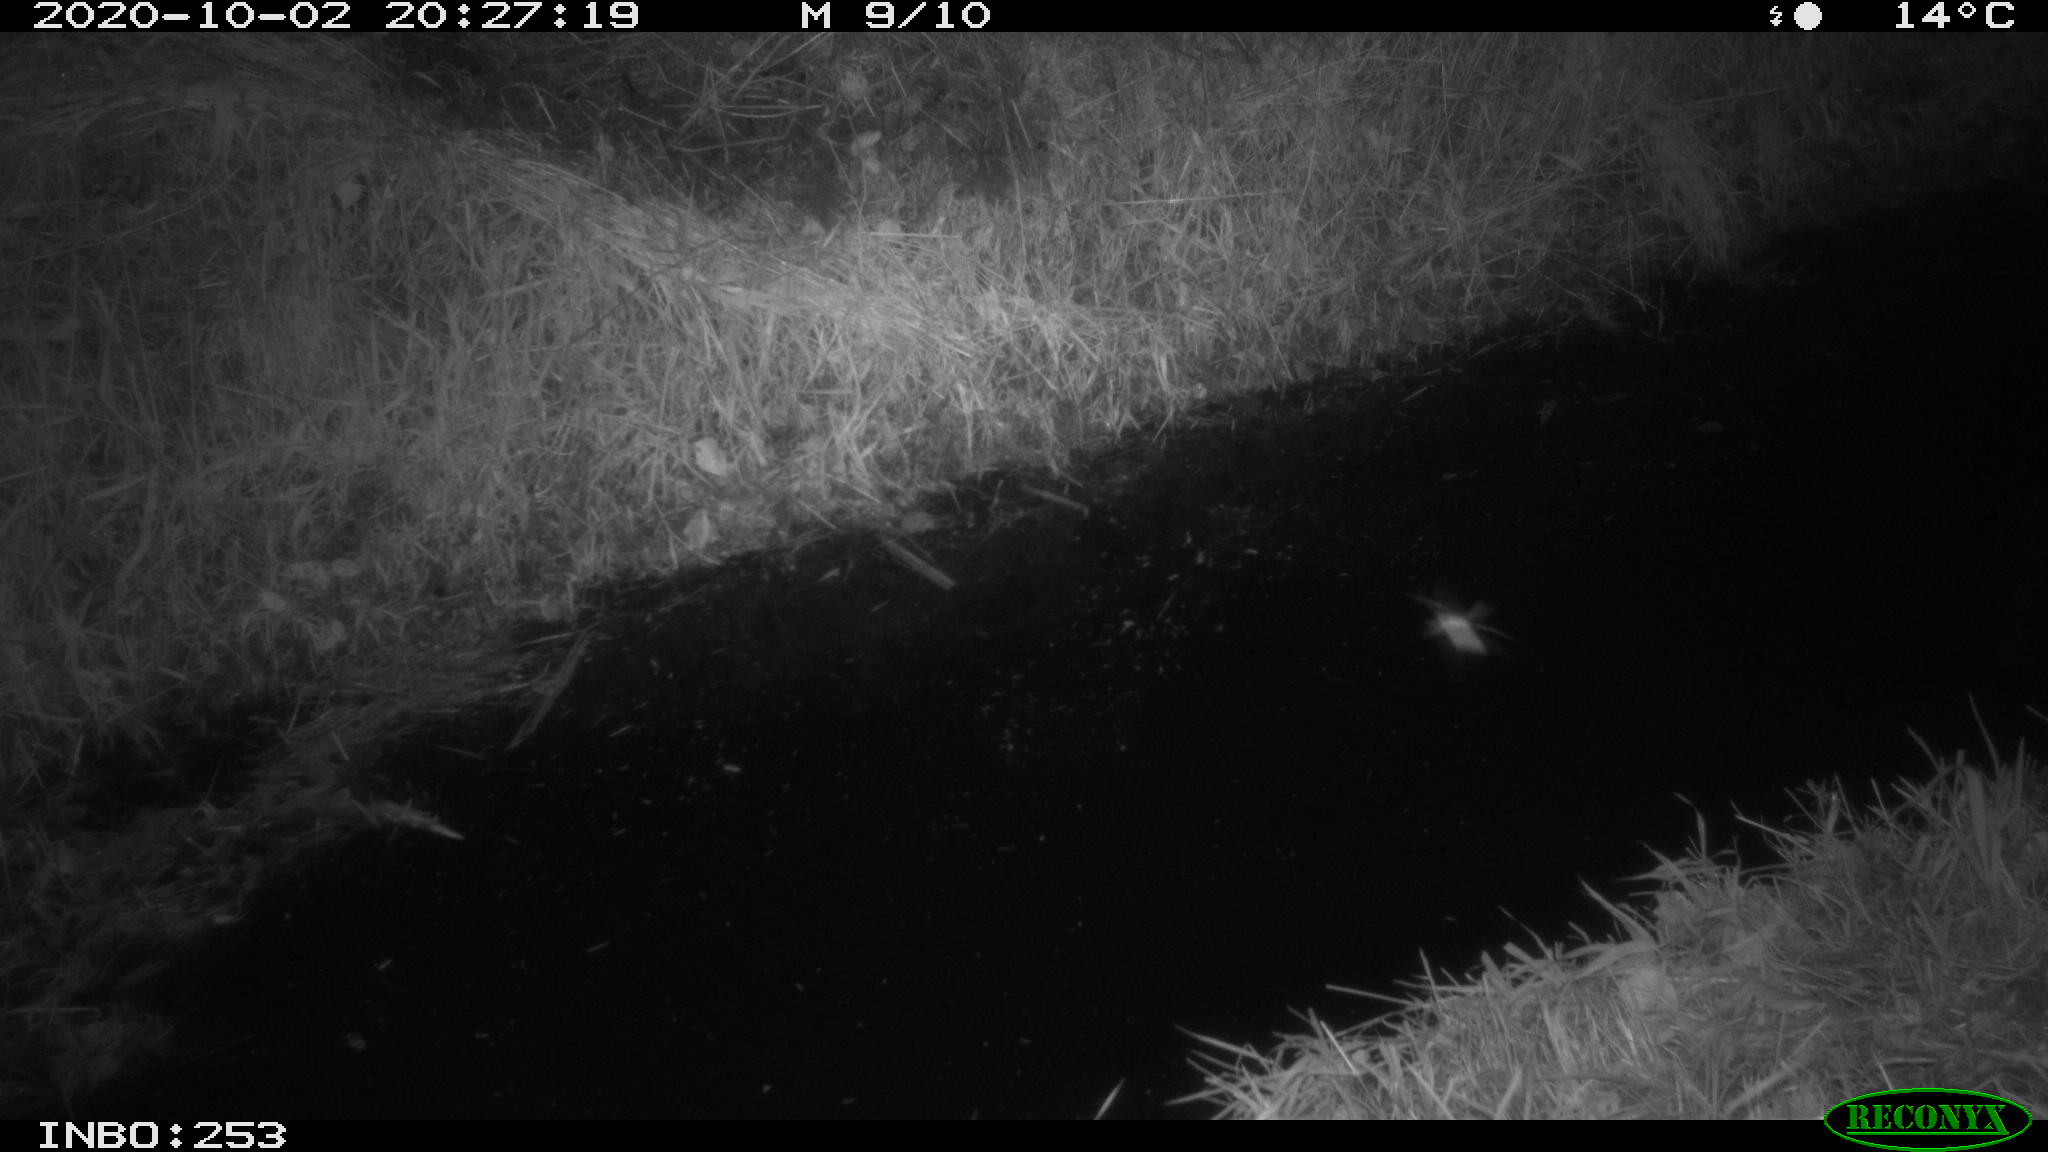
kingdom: Animalia
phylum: Chordata
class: Mammalia
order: Rodentia
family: Muridae
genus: Rattus
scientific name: Rattus norvegicus
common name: Brown rat
